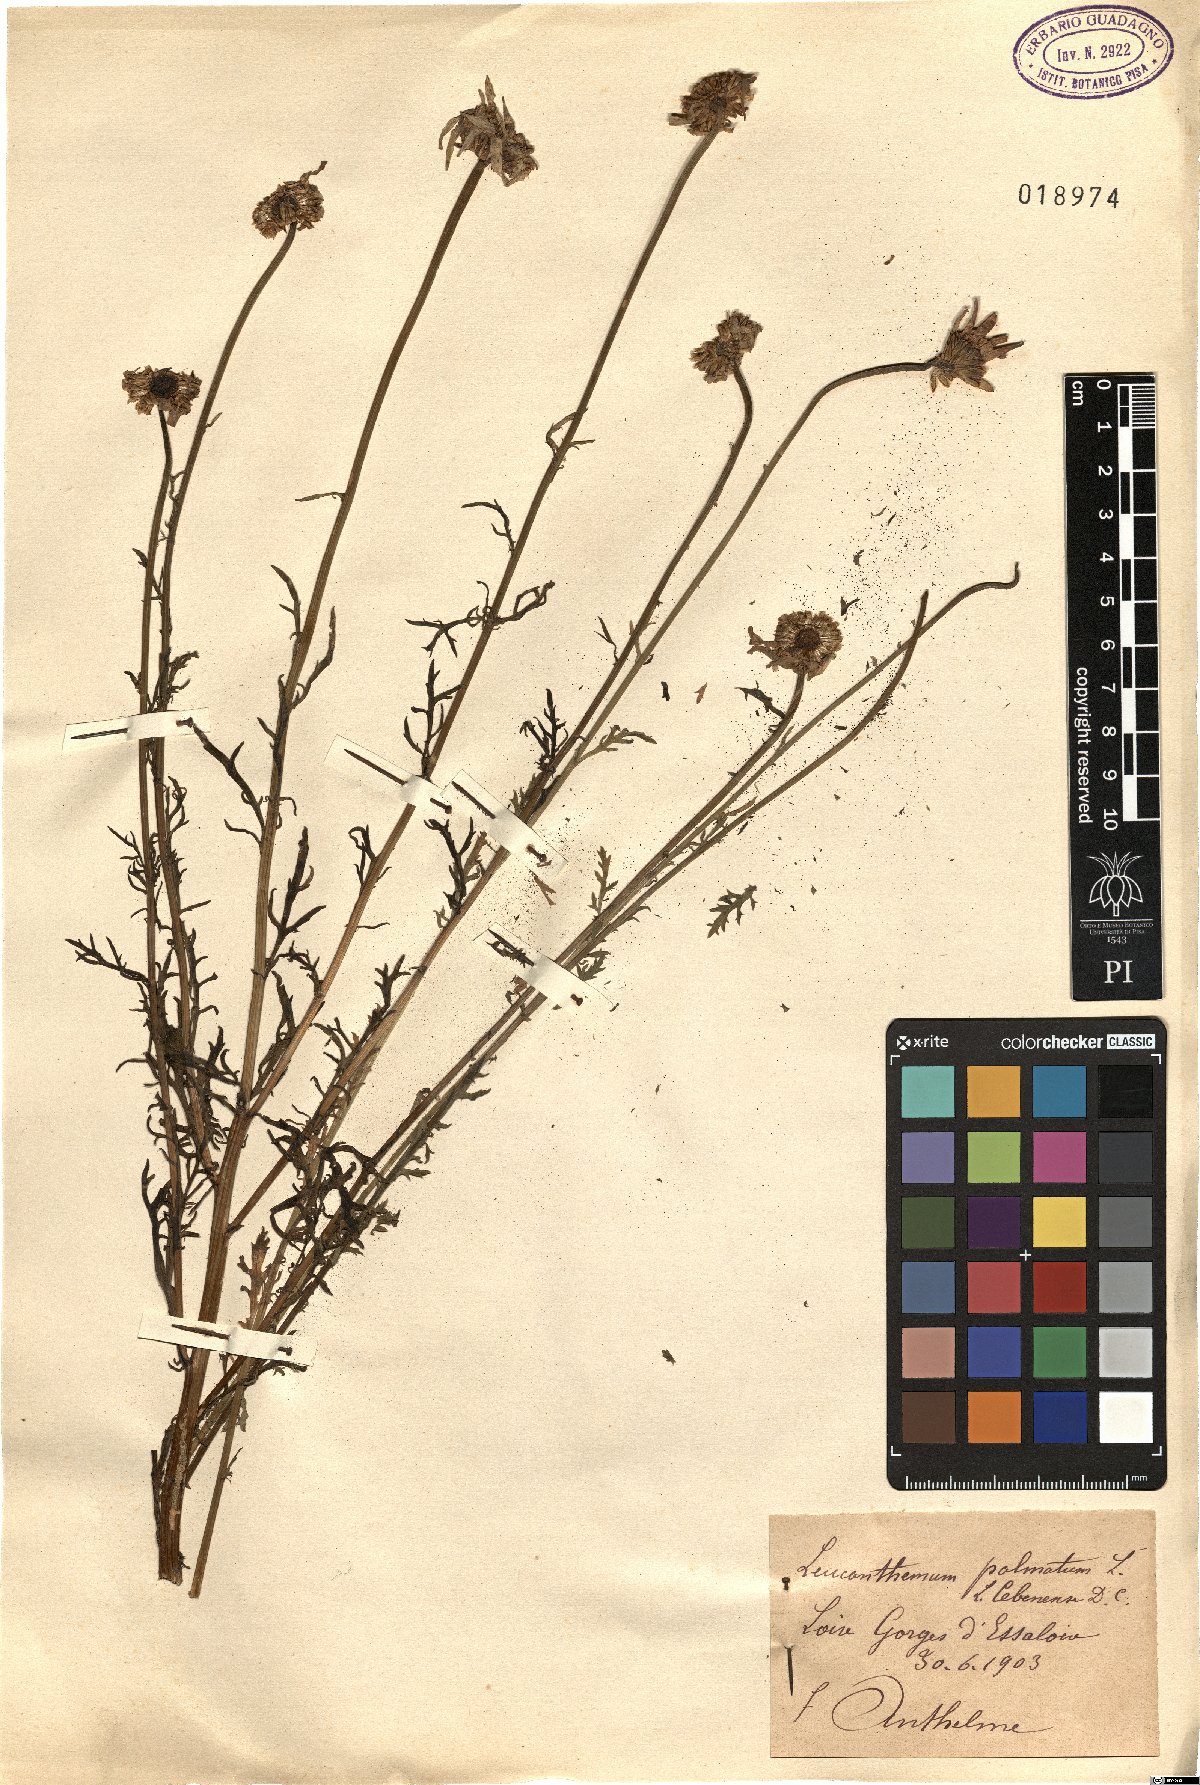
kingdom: Plantae
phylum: Tracheophyta
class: Magnoliopsida
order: Asterales
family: Asteraceae
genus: Leucanthemum
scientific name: Leucanthemum monspeliense
